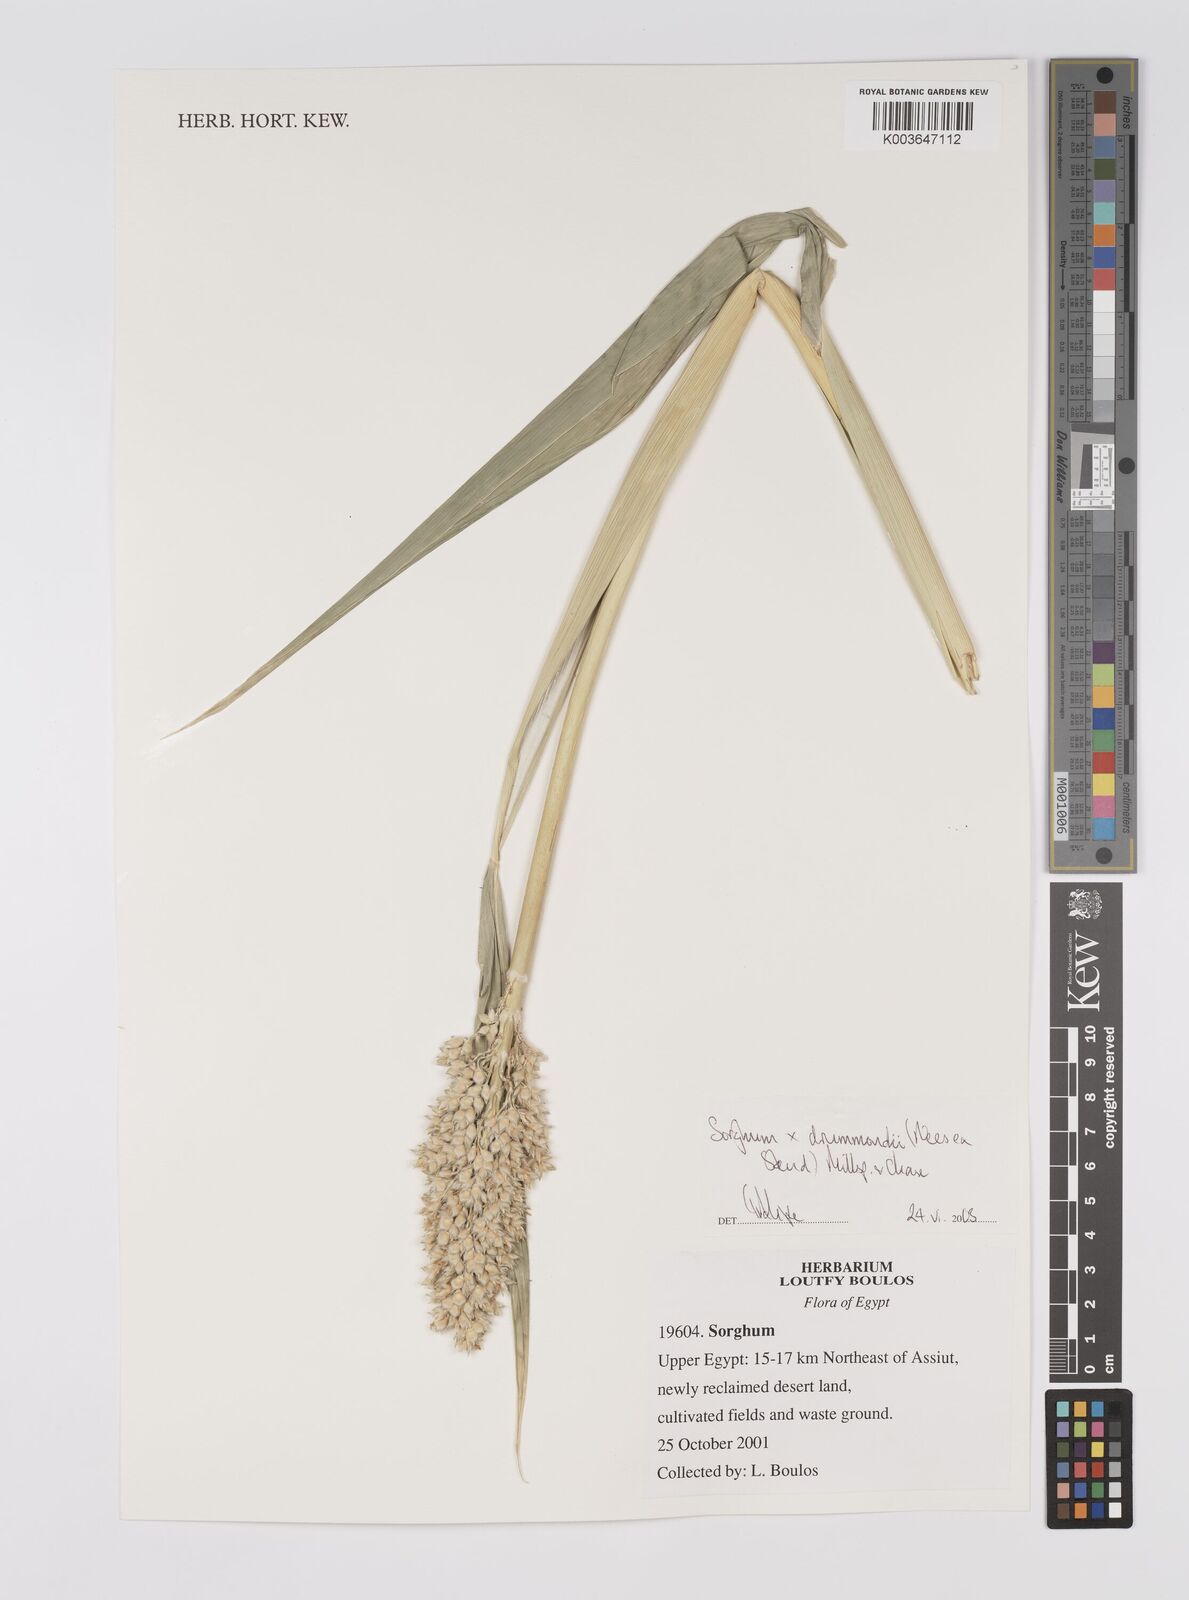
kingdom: Plantae
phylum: Tracheophyta
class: Liliopsida
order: Poales
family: Poaceae
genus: Sorghum
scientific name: Sorghum drummondii
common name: Sudangrass
